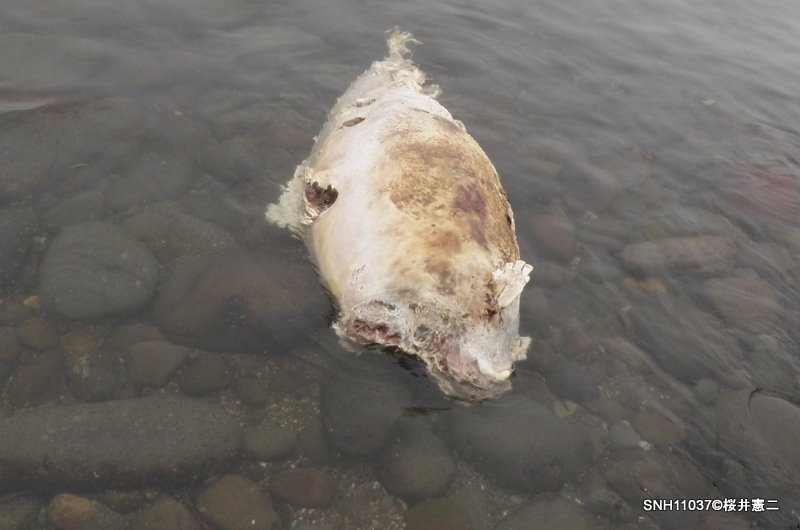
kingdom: Animalia
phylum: Chordata
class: Mammalia
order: Cetacea
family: Phocoenidae
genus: Phocoenoides
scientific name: Phocoenoides dalli
